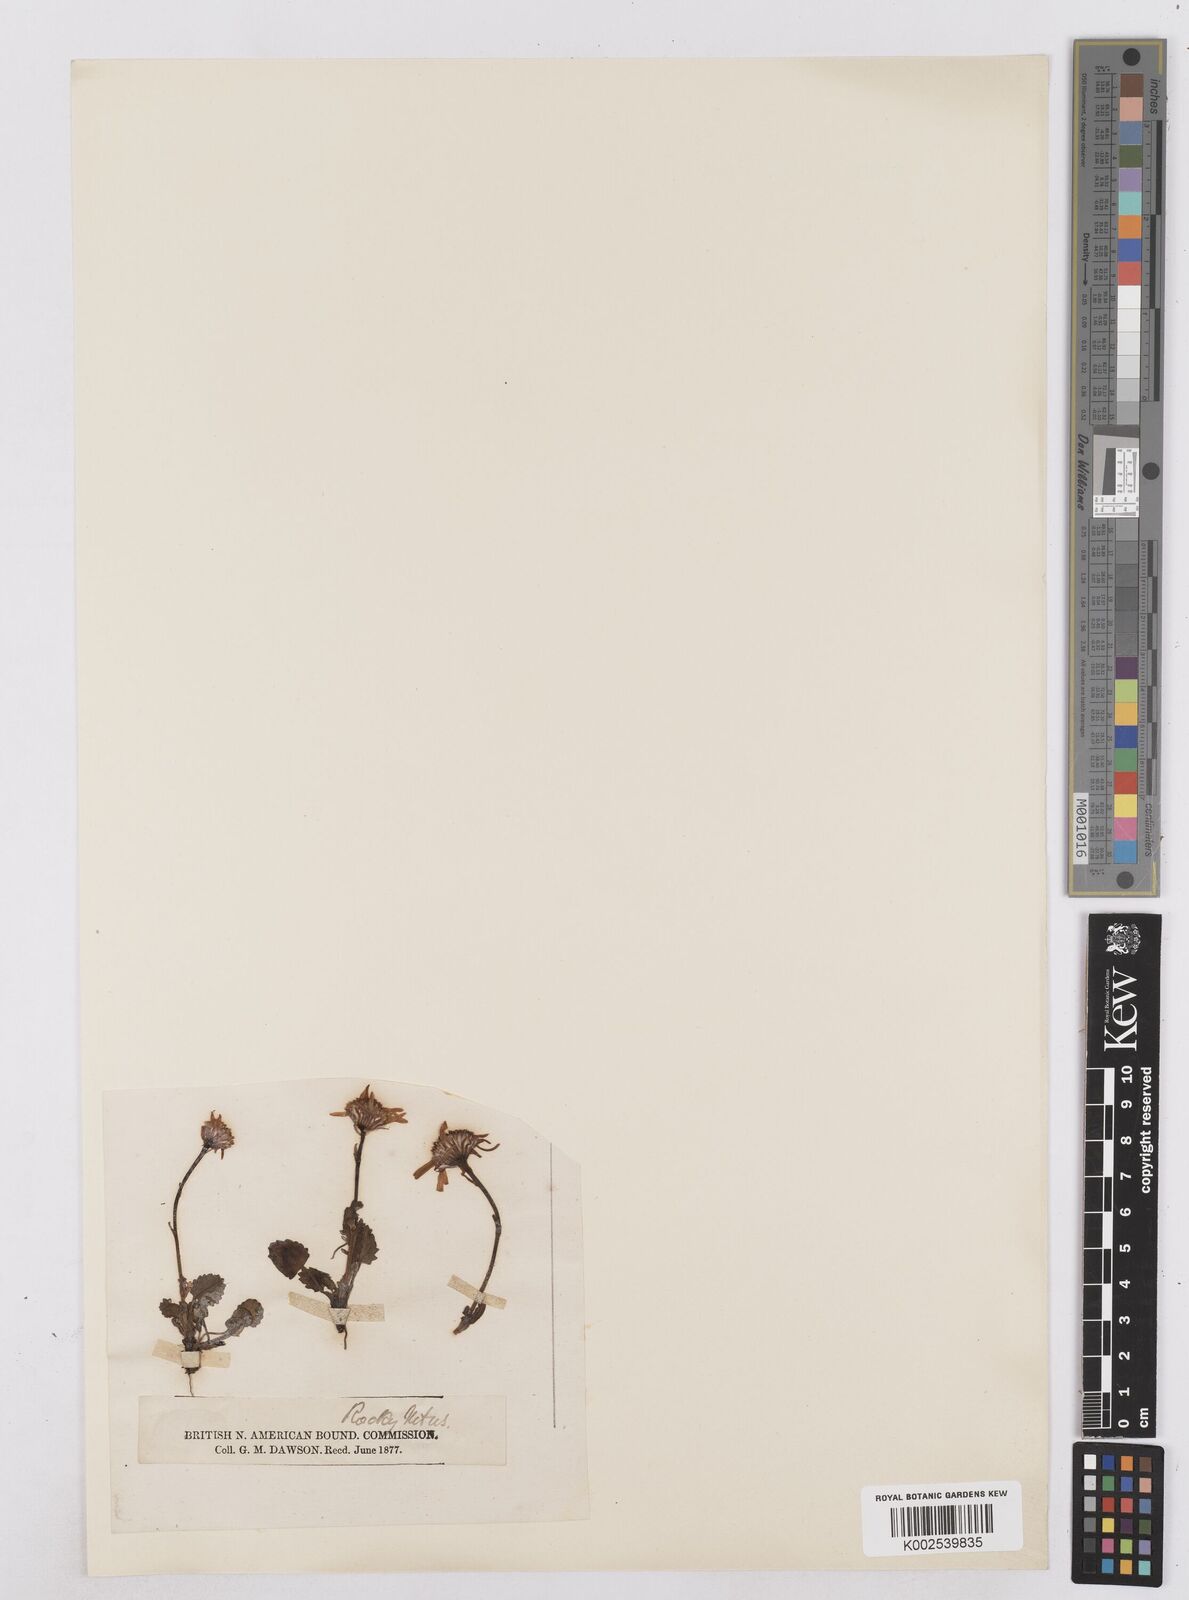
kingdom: Plantae
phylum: Tracheophyta
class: Magnoliopsida
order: Asterales
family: Asteraceae
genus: Packera
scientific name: Packera crocata
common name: Saffron ragwort
